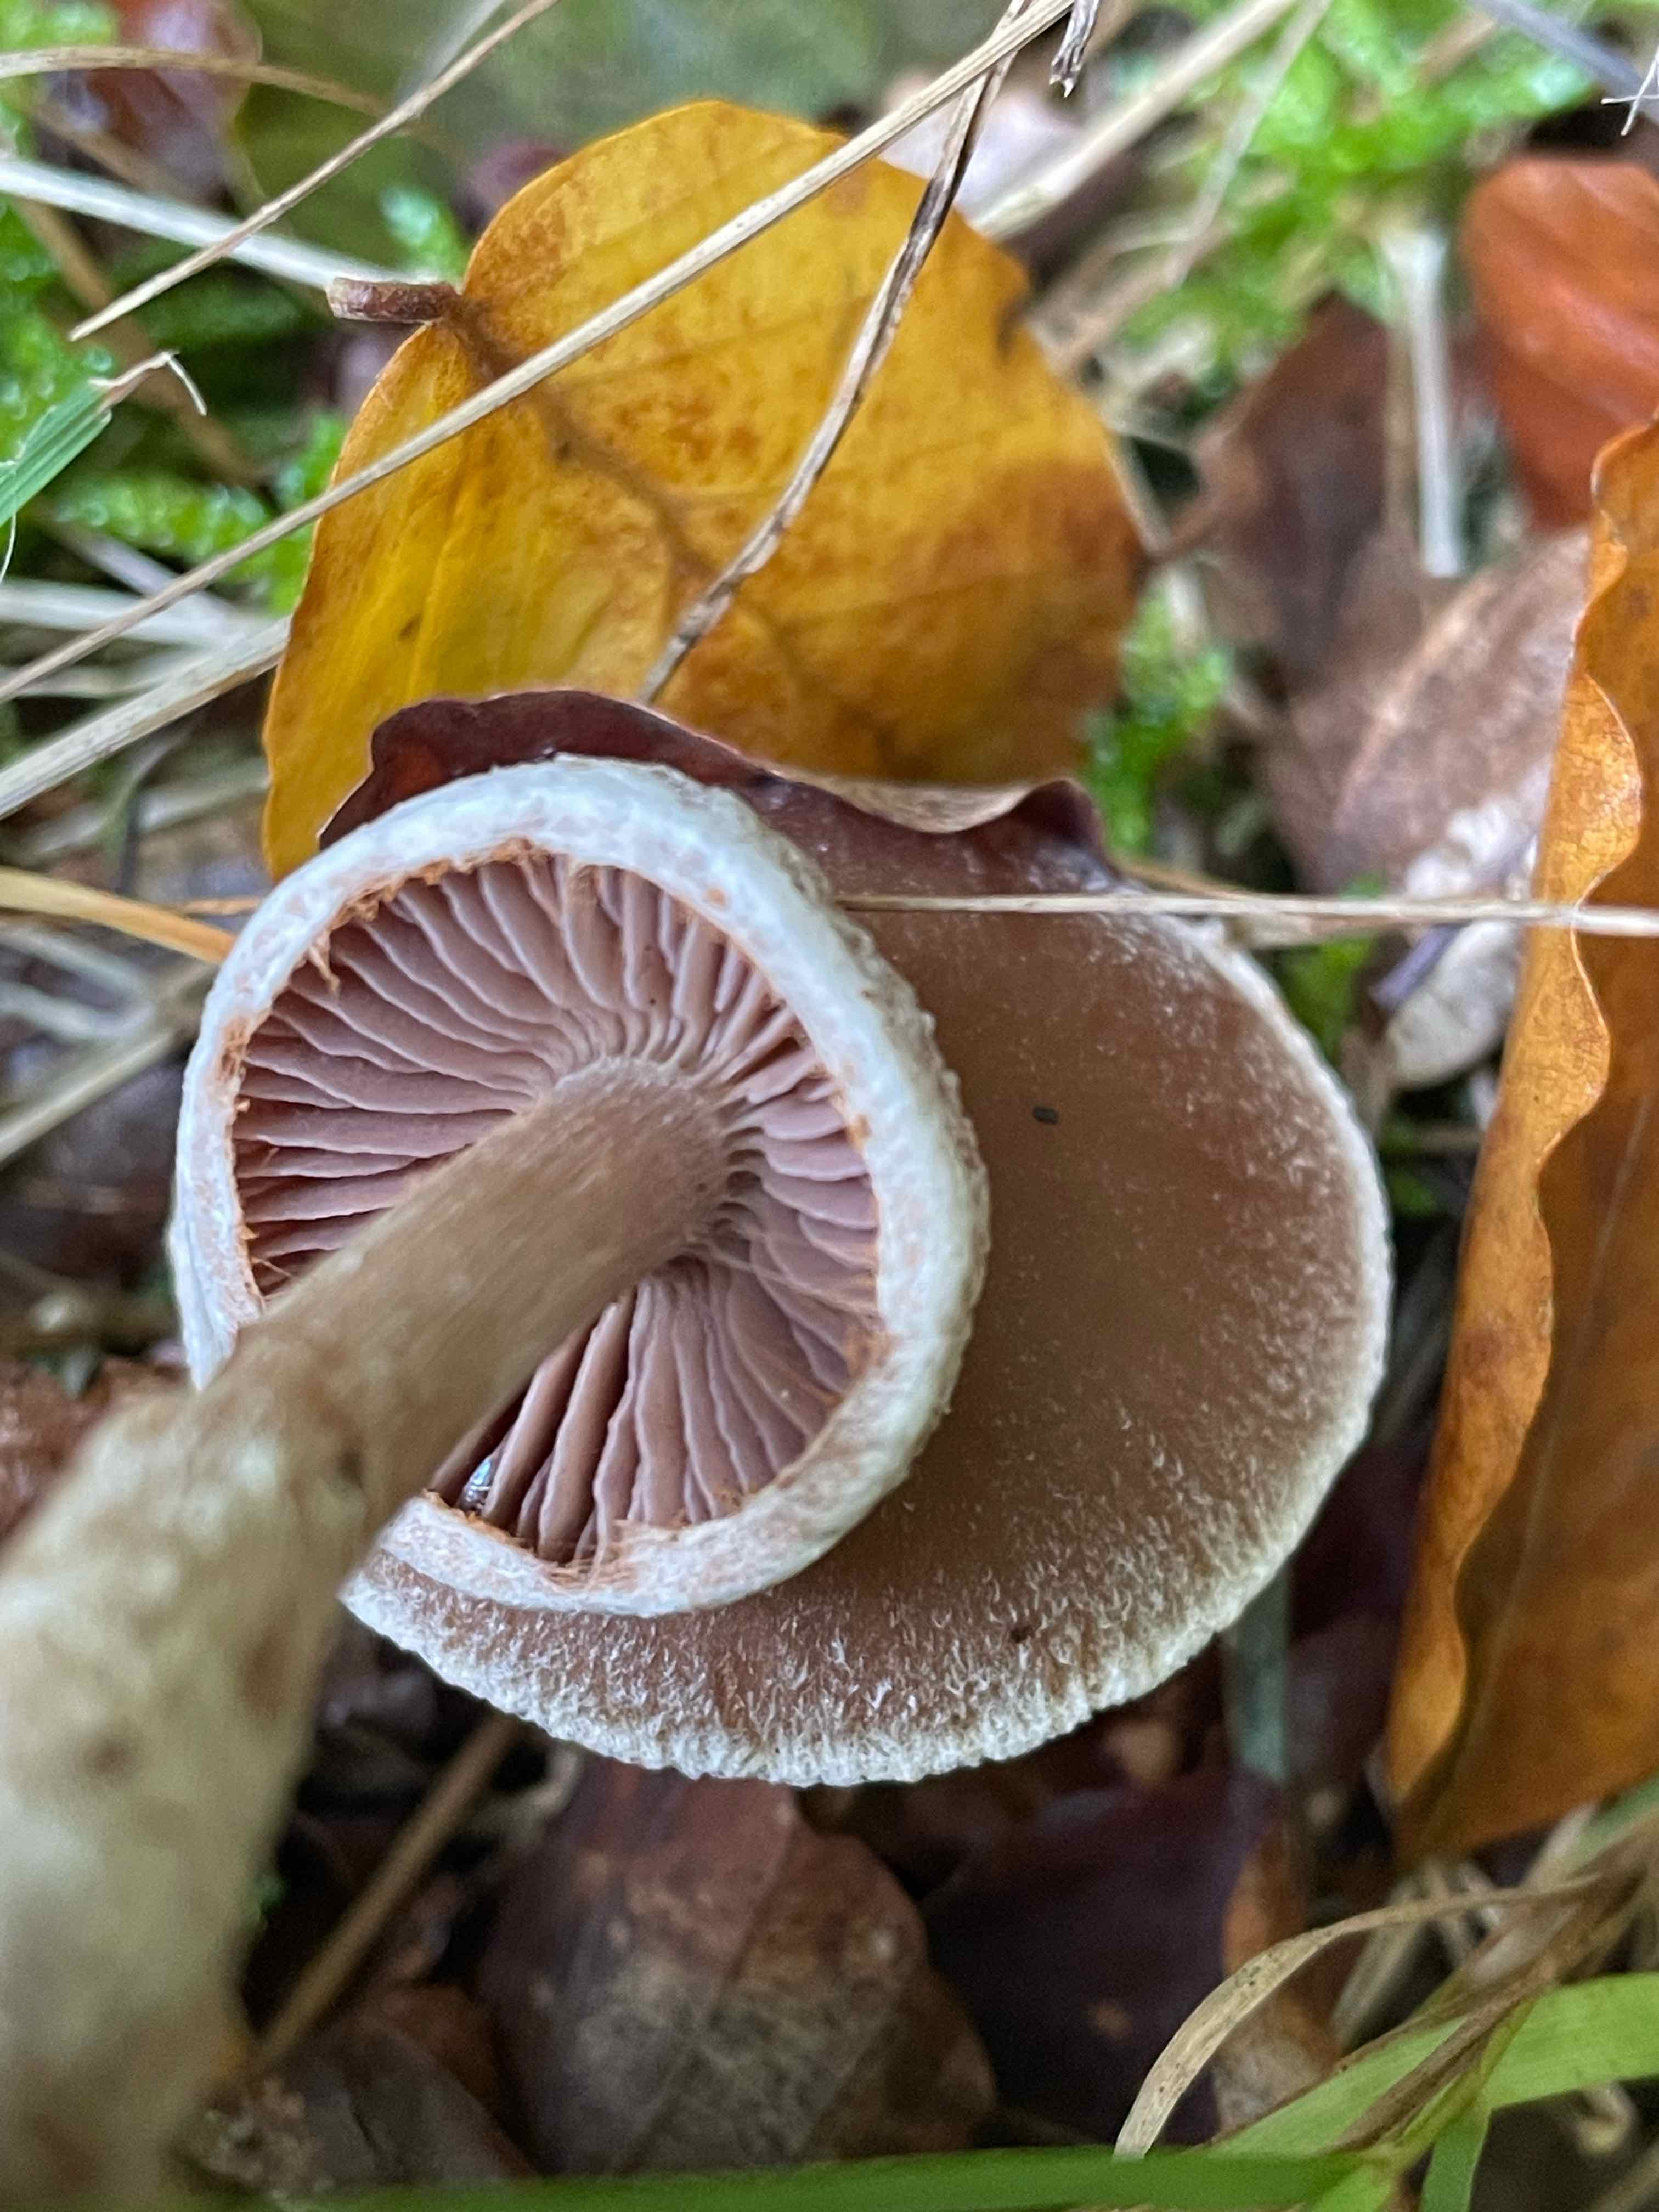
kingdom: Fungi
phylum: Basidiomycota
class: Agaricomycetes
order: Agaricales
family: Cortinariaceae
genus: Cortinarius
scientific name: Cortinarius geraniolens
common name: geranium-slørhat
